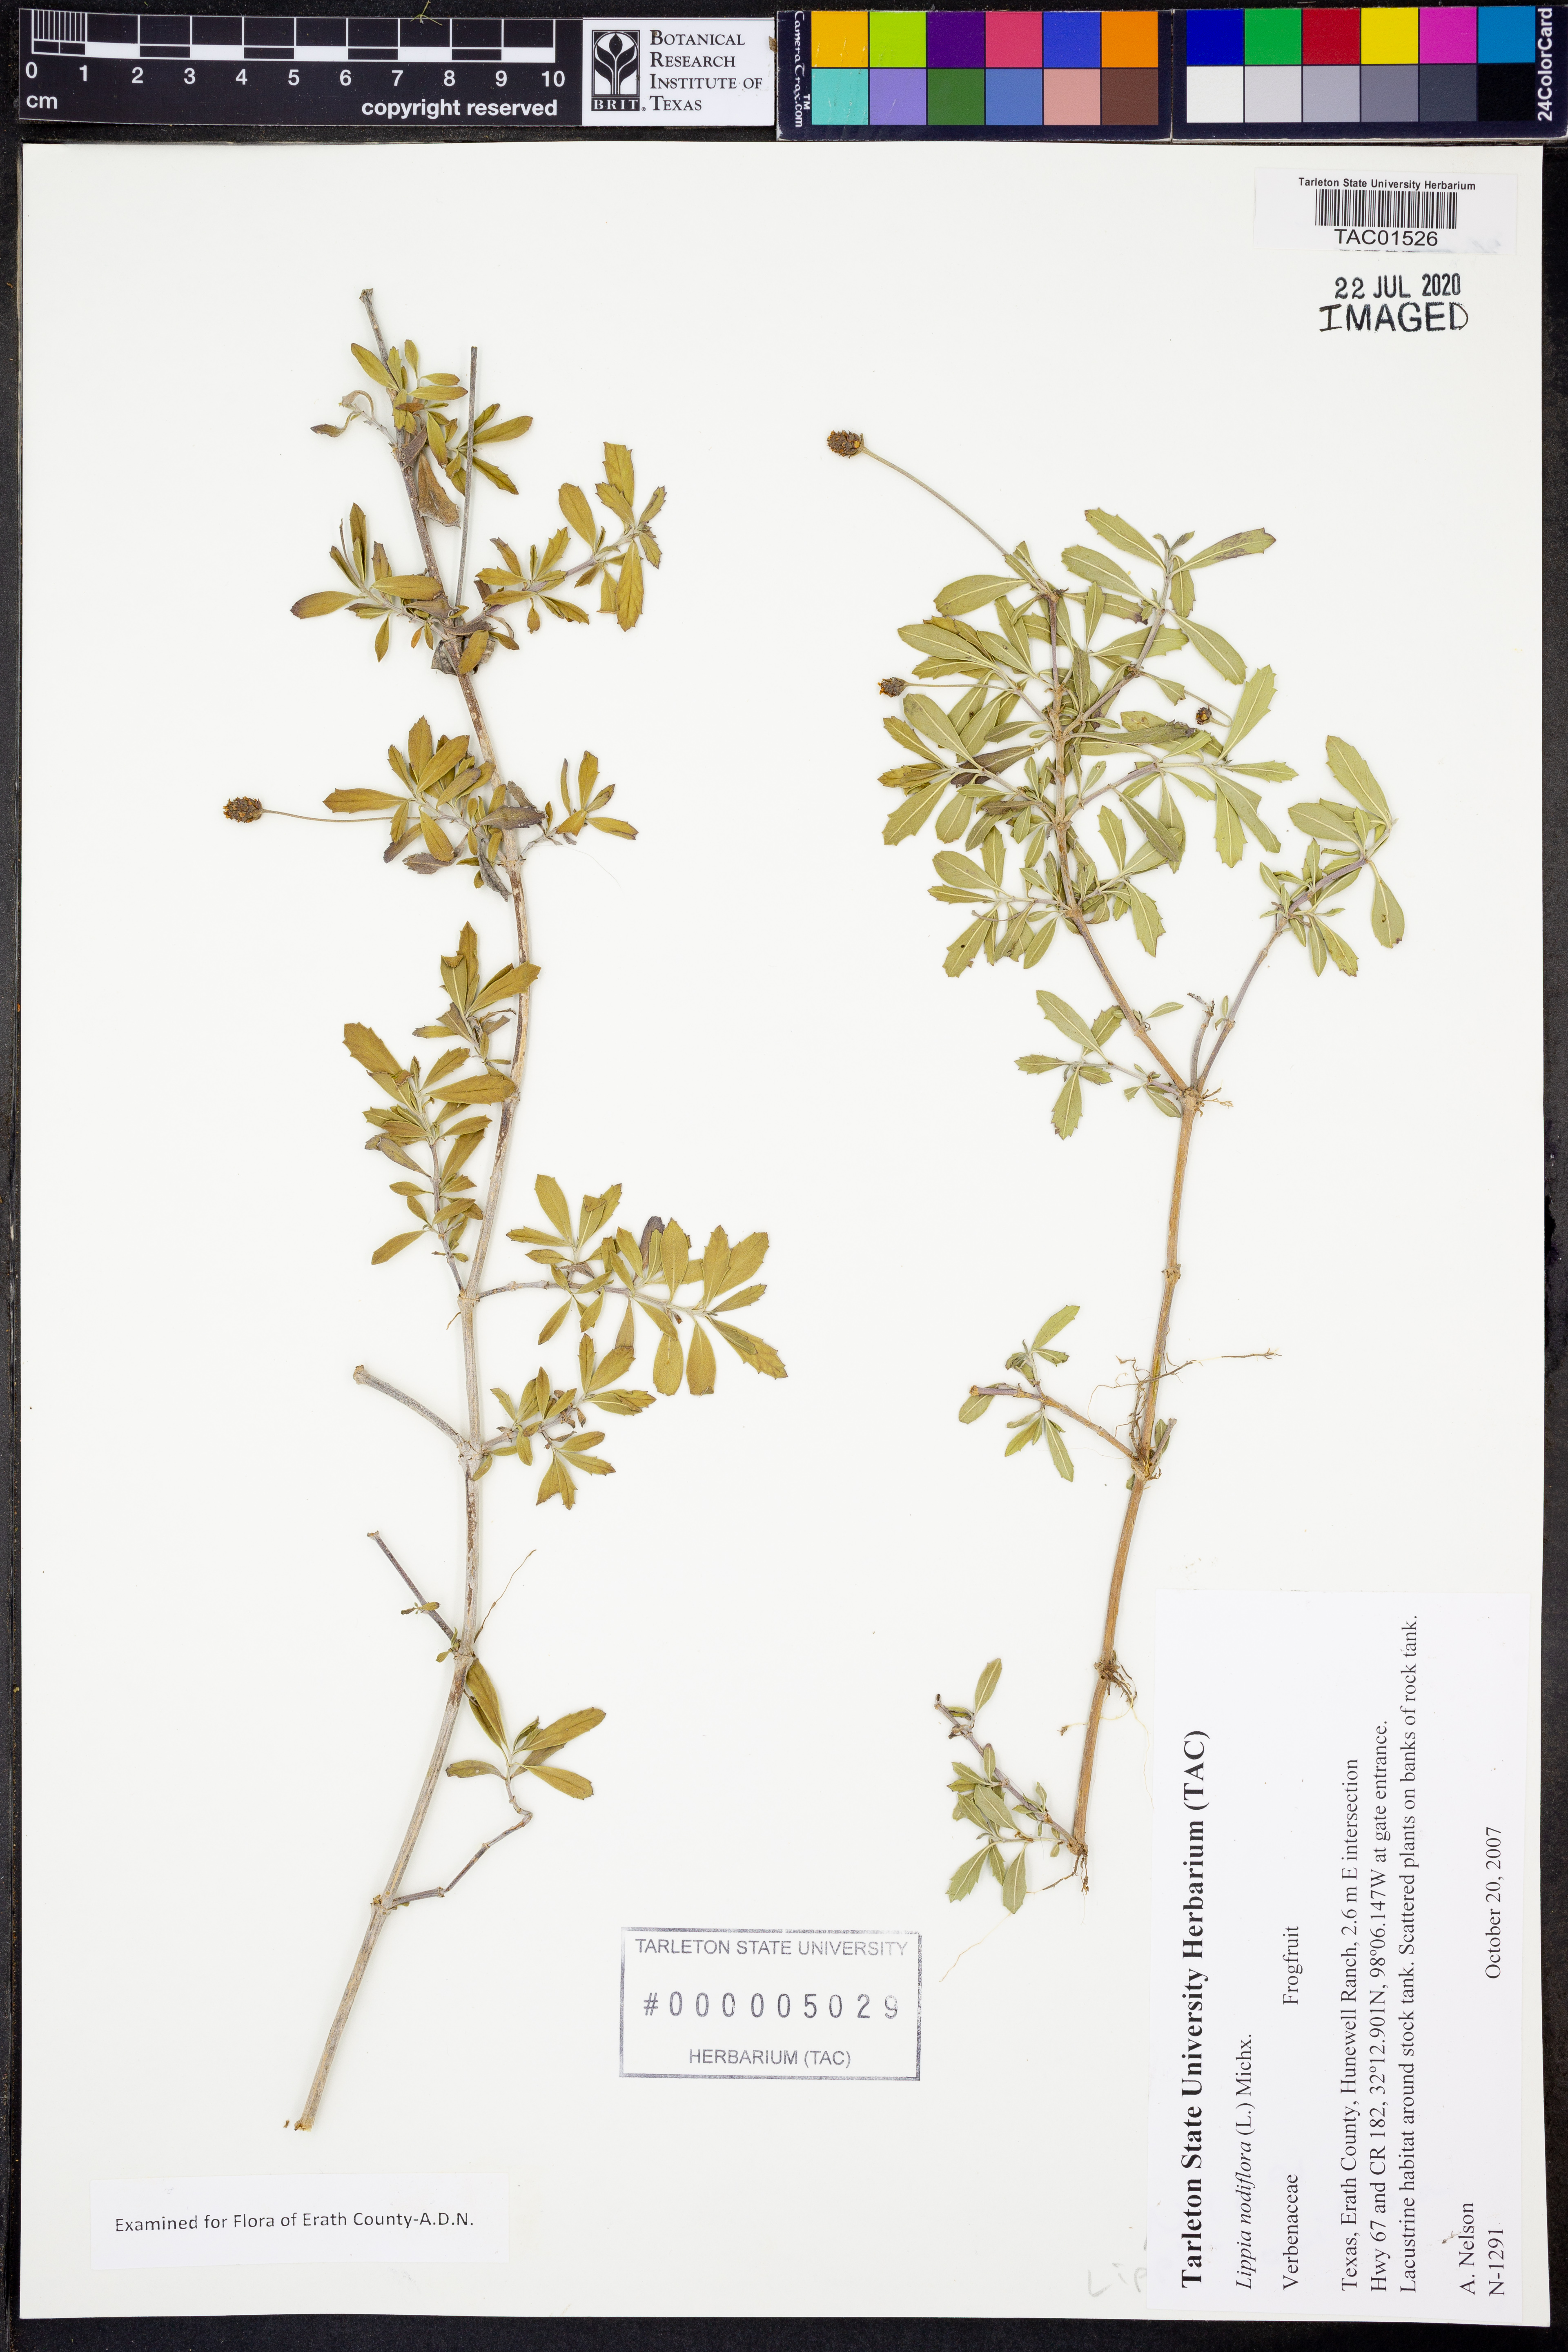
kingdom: Plantae
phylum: Tracheophyta
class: Magnoliopsida
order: Lamiales
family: Verbenaceae
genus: Phyla
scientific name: Phyla nodiflora
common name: Frogfruit
